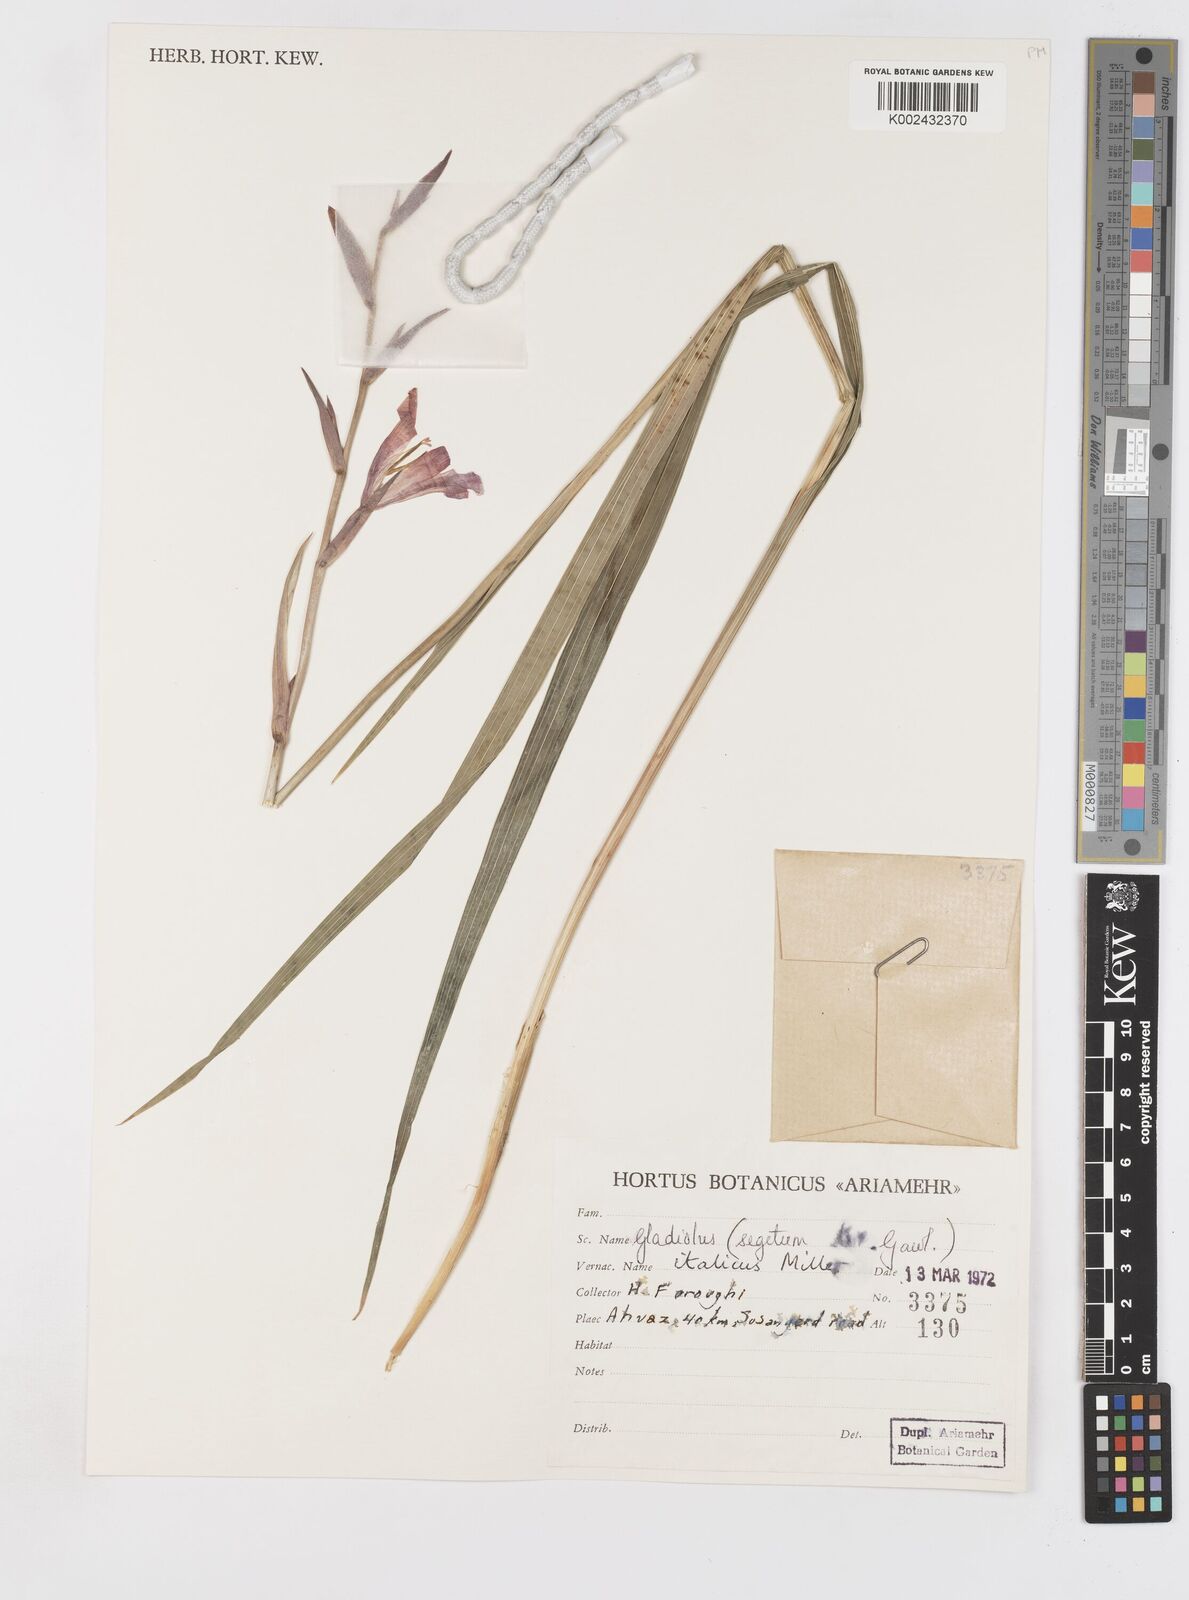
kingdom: Plantae
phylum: Tracheophyta
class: Liliopsida
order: Asparagales
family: Iridaceae
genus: Gladiolus
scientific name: Gladiolus italicus
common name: Field gladiolus
